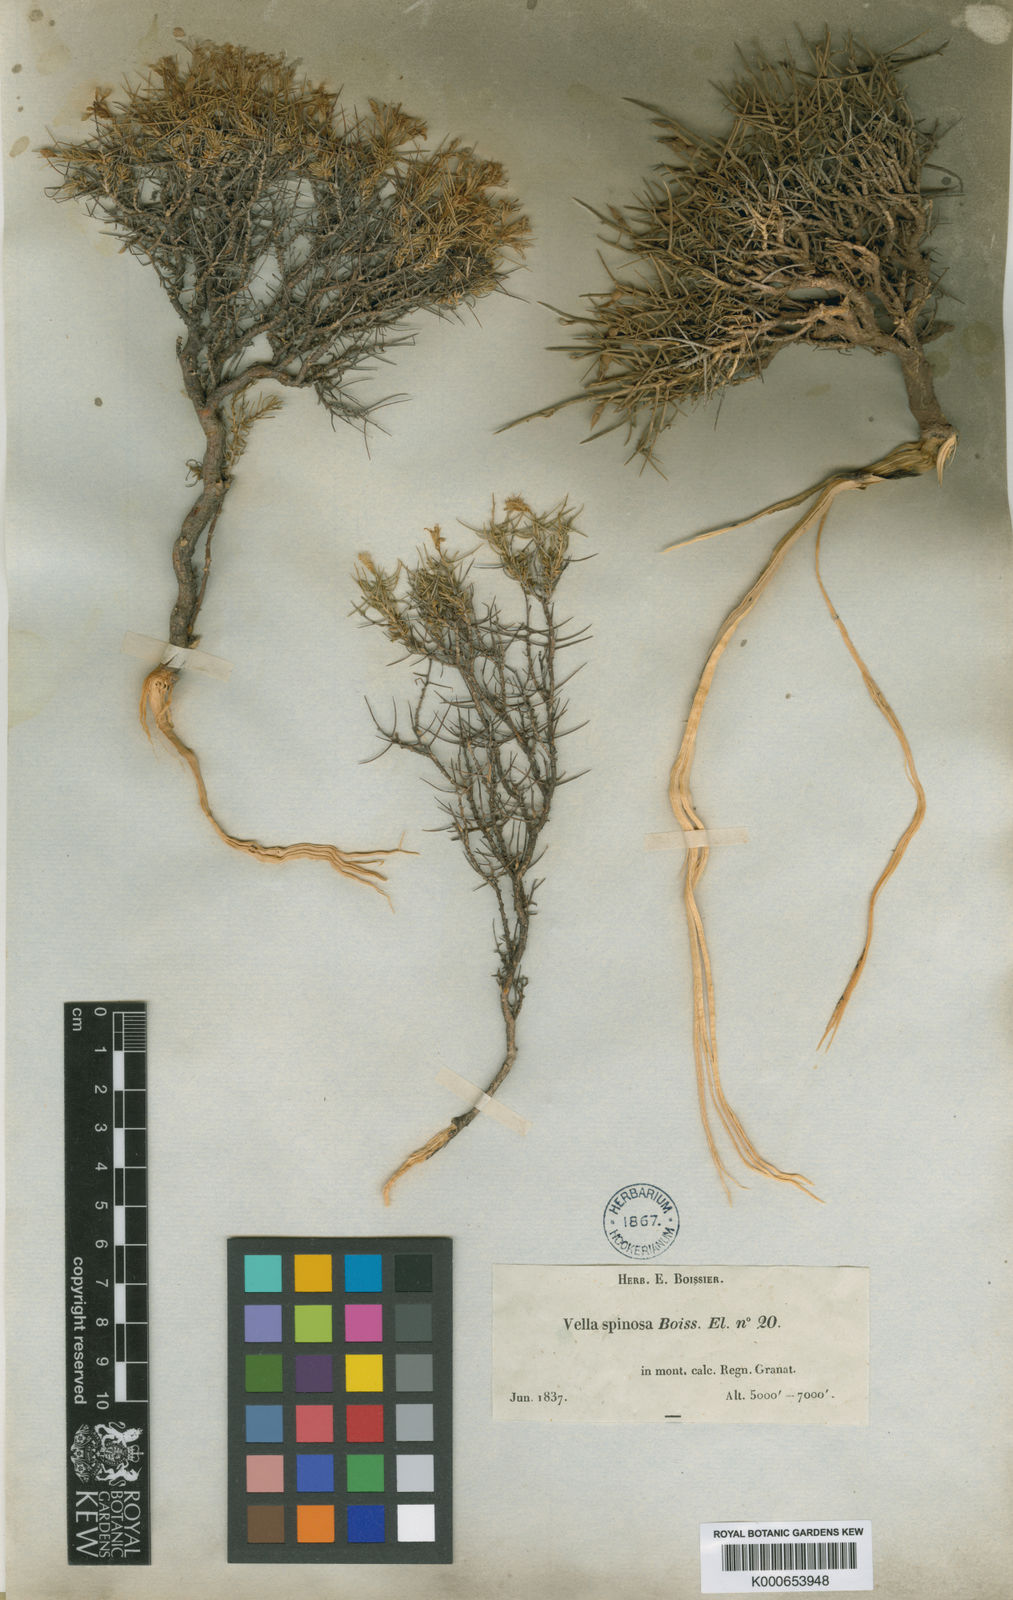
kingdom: Plantae
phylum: Tracheophyta
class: Magnoliopsida
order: Brassicales
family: Brassicaceae
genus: Vella
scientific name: Vella spinosa
